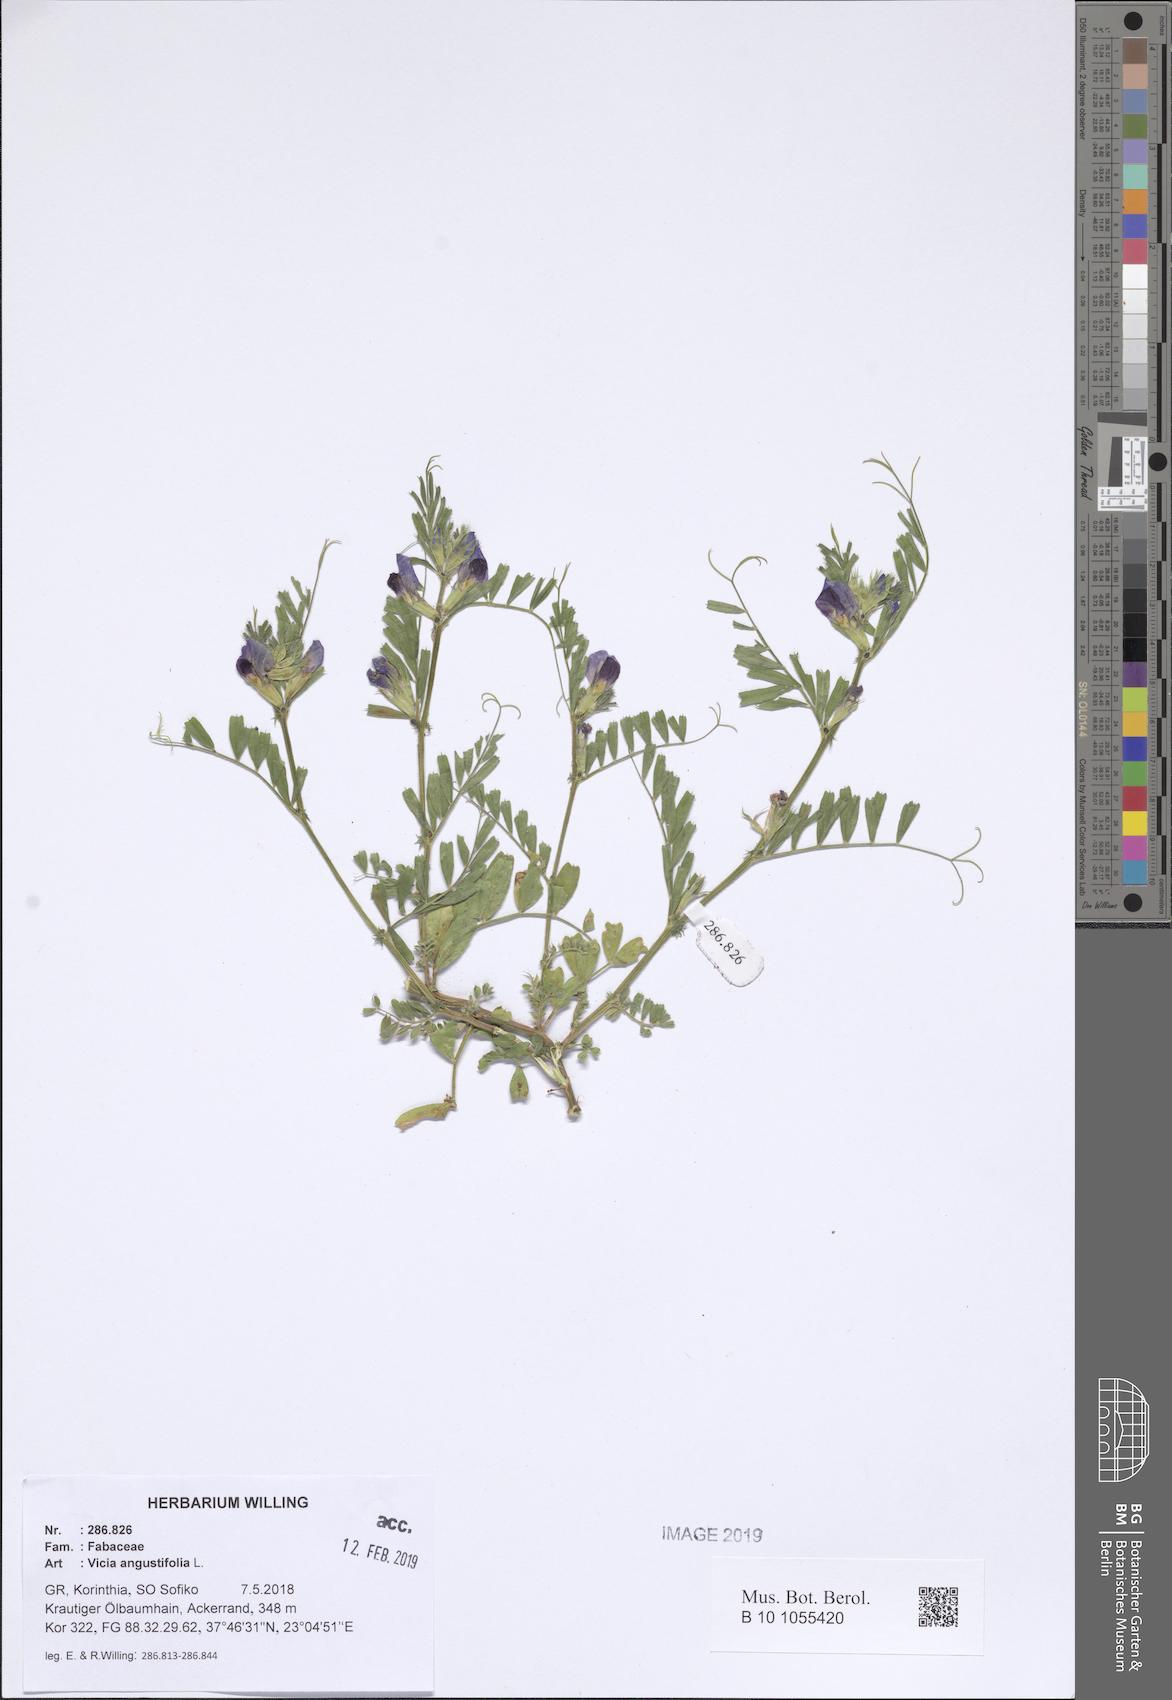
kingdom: Plantae
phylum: Tracheophyta
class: Magnoliopsida
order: Fabales
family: Fabaceae
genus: Vicia
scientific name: Vicia sativa
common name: Garden vetch
